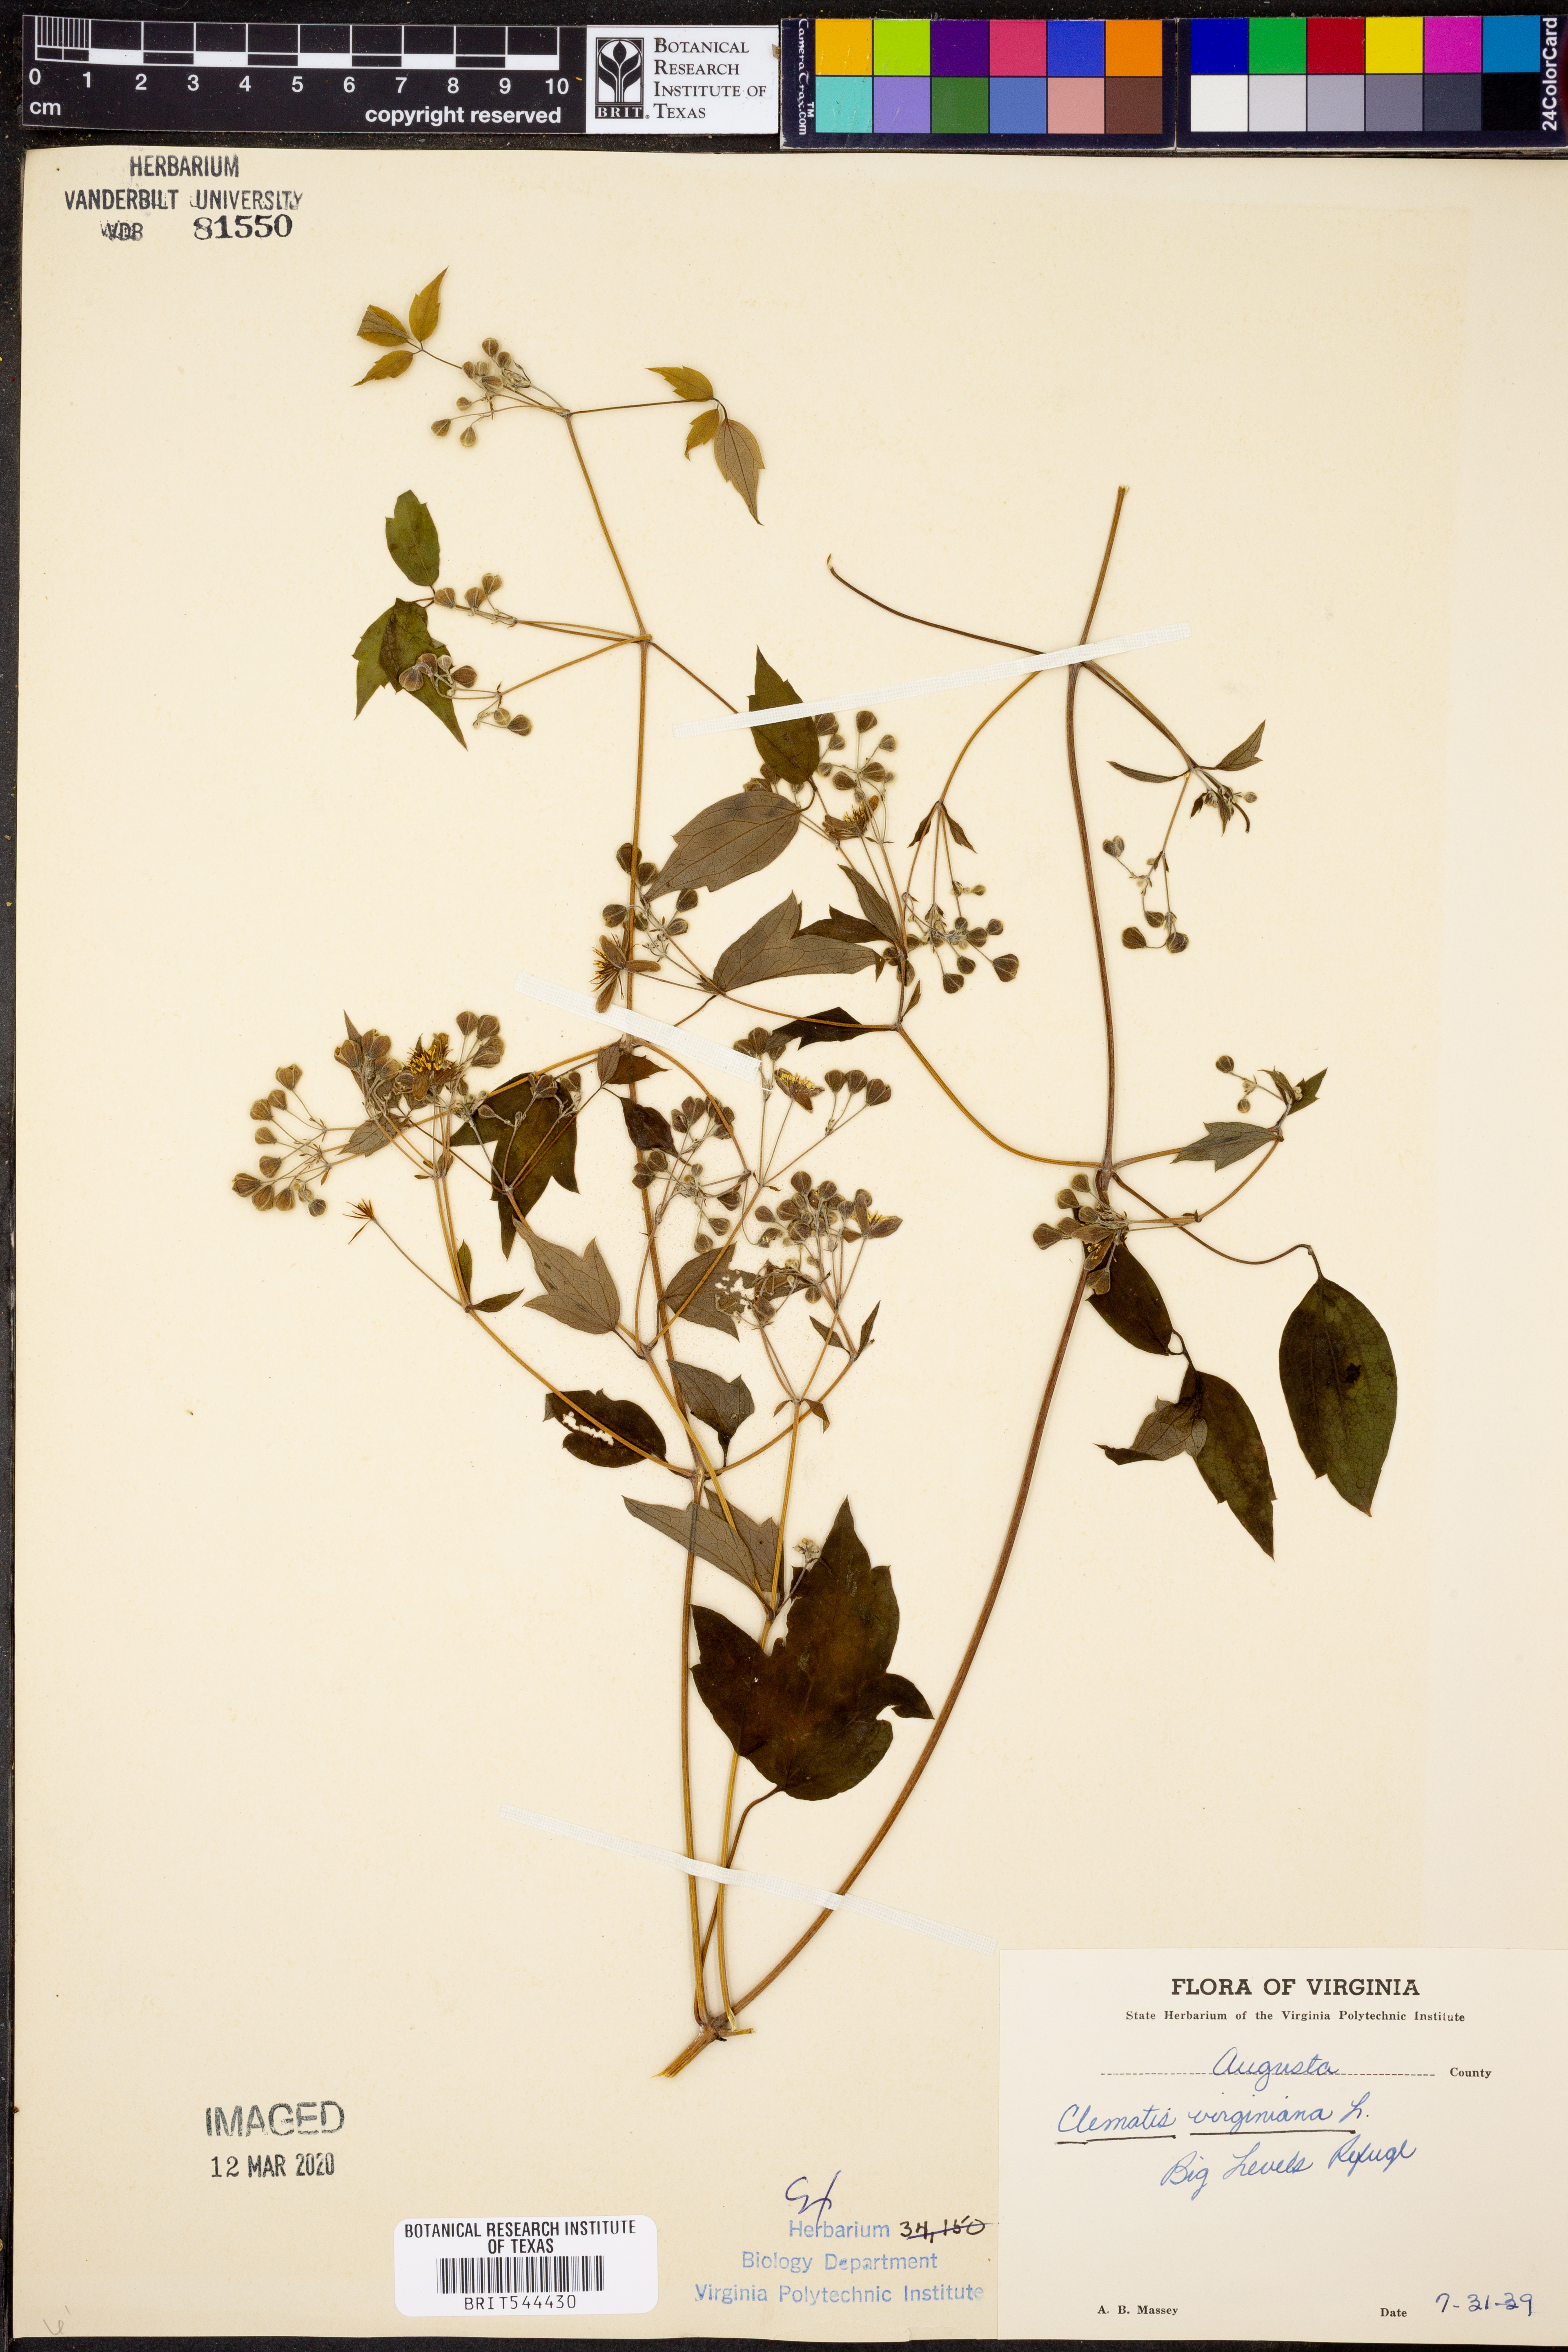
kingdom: Plantae
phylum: Tracheophyta
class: Magnoliopsida
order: Ranunculales
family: Ranunculaceae
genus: Clematis
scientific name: Clematis virginiana
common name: Virgin's-bower
